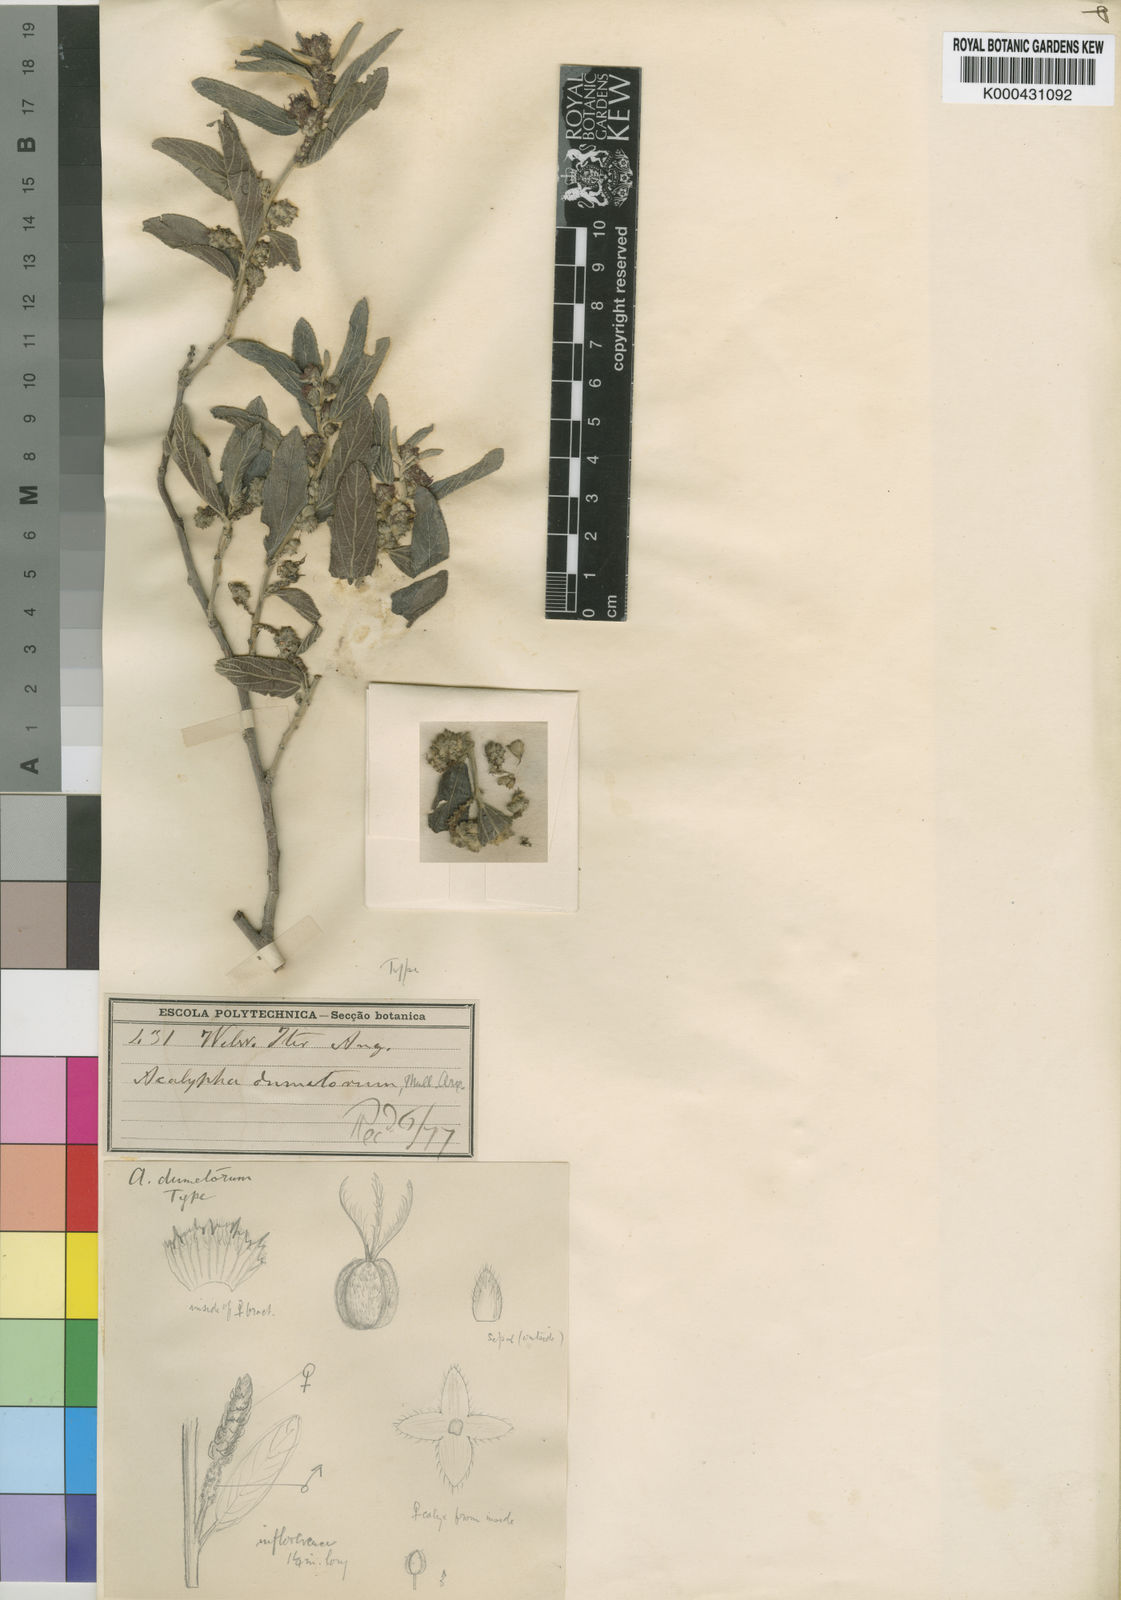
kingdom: Plantae
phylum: Tracheophyta
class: Magnoliopsida
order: Malpighiales
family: Euphorbiaceae
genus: Acalypha
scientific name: Acalypha
